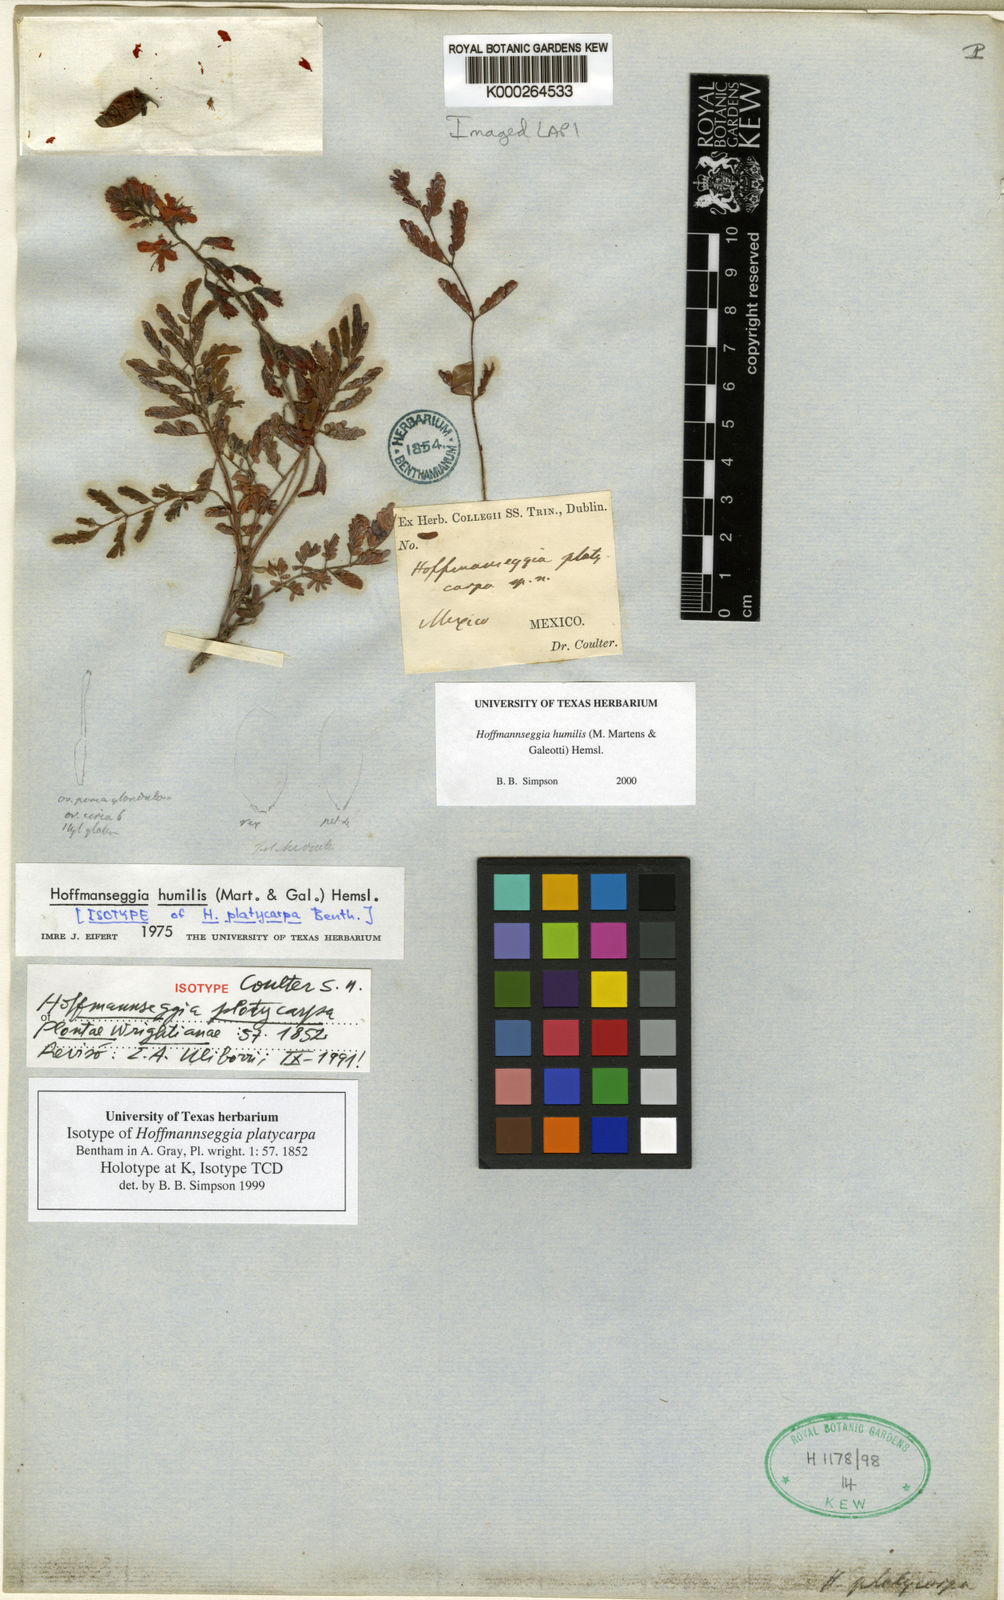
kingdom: Plantae
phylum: Tracheophyta
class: Magnoliopsida
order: Fabales
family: Fabaceae
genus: Hoffmannseggia
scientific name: Hoffmannseggia
